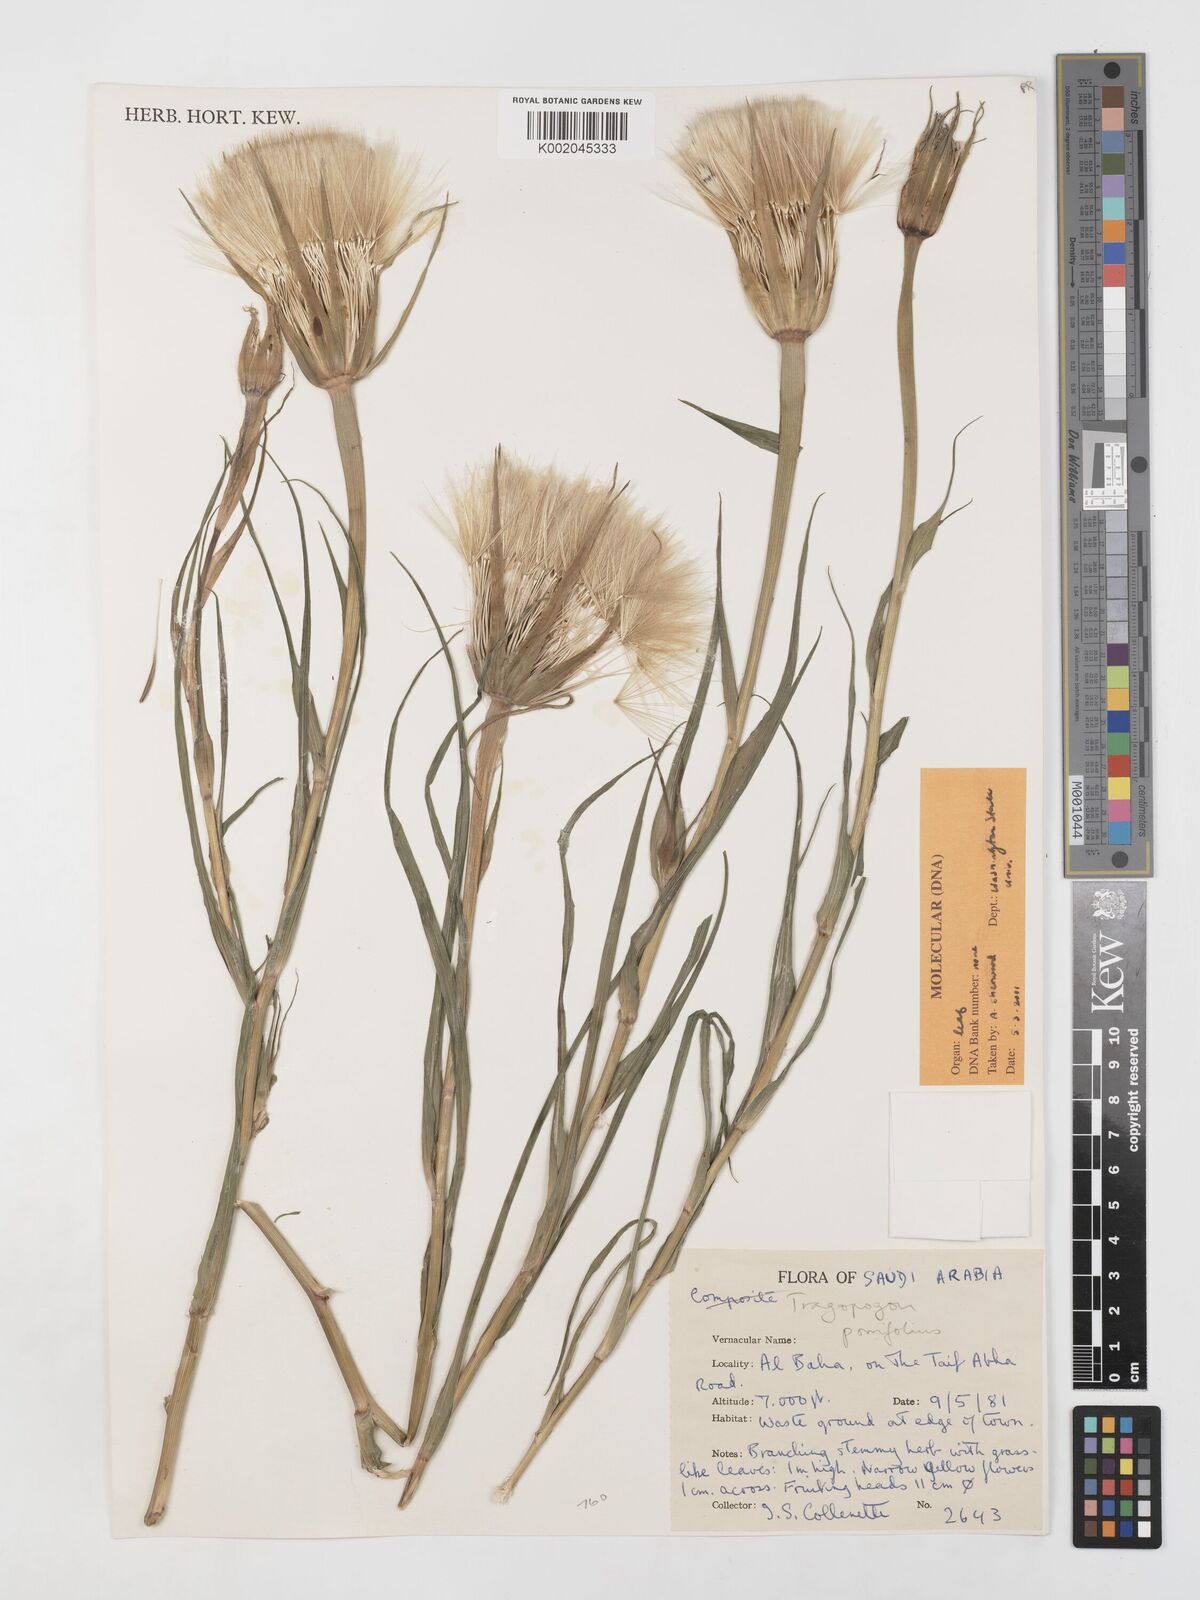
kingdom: Plantae
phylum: Tracheophyta
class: Magnoliopsida
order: Asterales
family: Asteraceae
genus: Tragopogon
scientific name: Tragopogon dubius
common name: Yellow salsify
